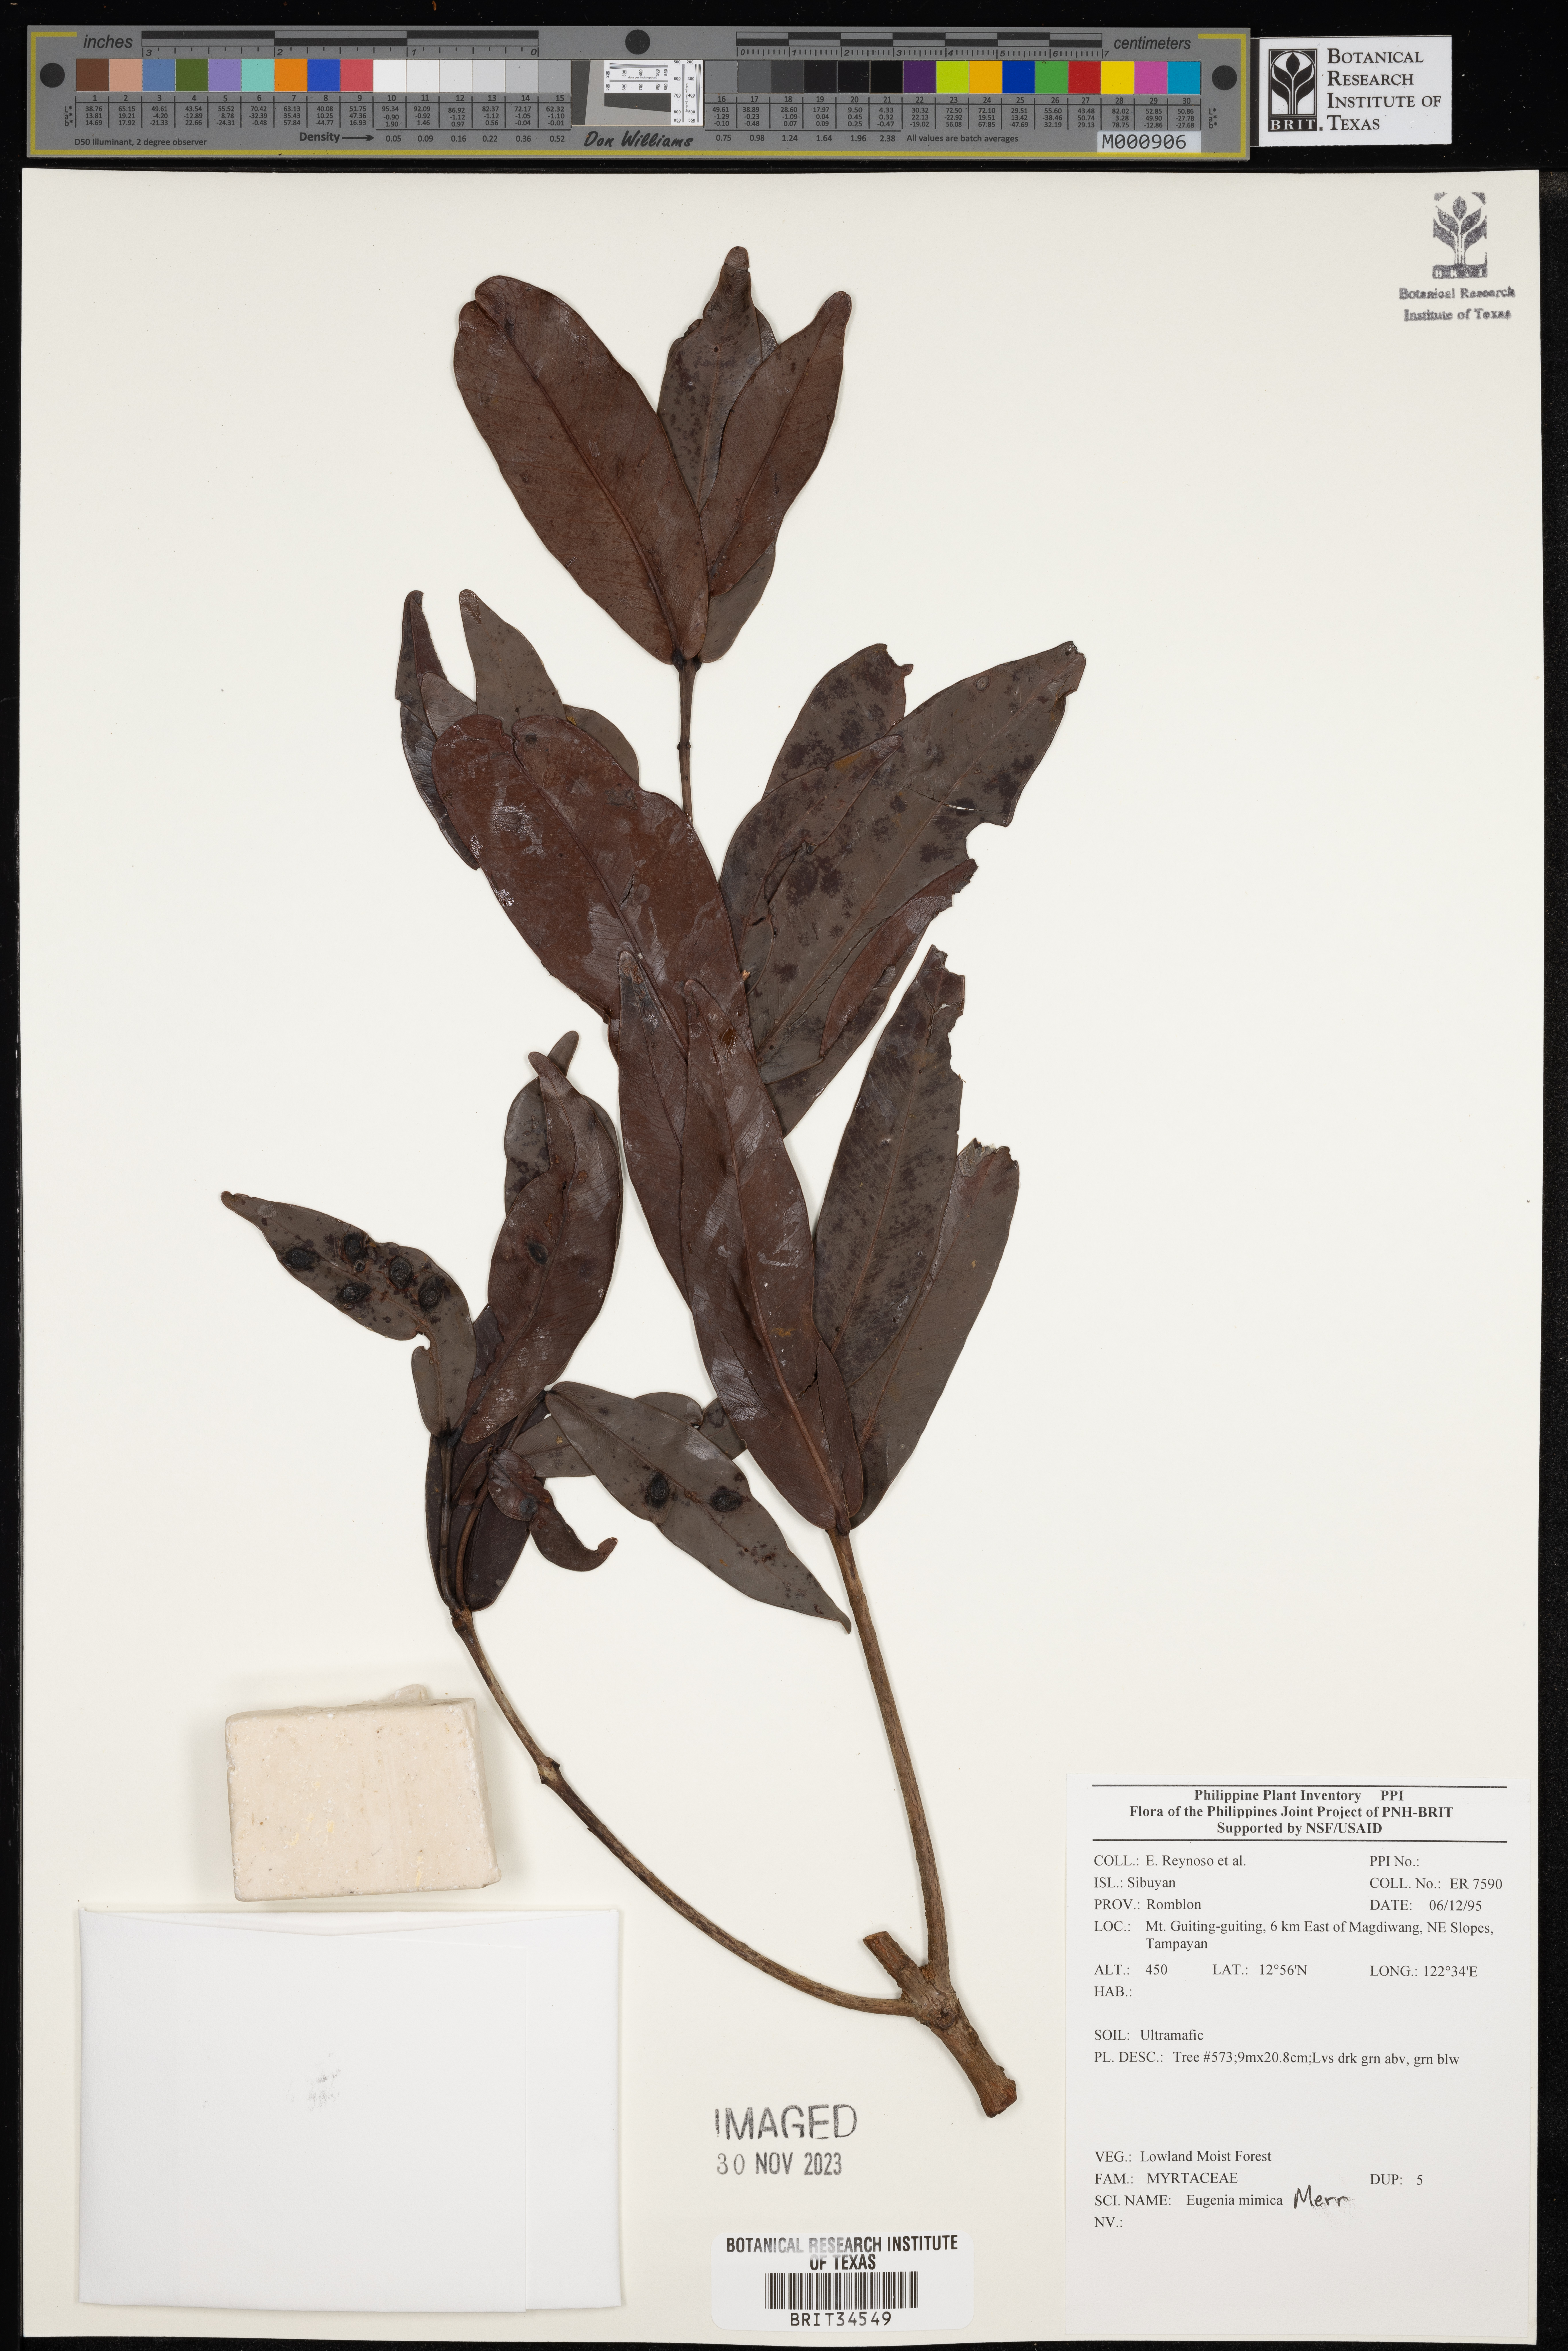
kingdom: Plantae
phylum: Tracheophyta
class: Magnoliopsida
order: Myrtales
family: Myrtaceae
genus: Eugenia
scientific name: Eugenia
